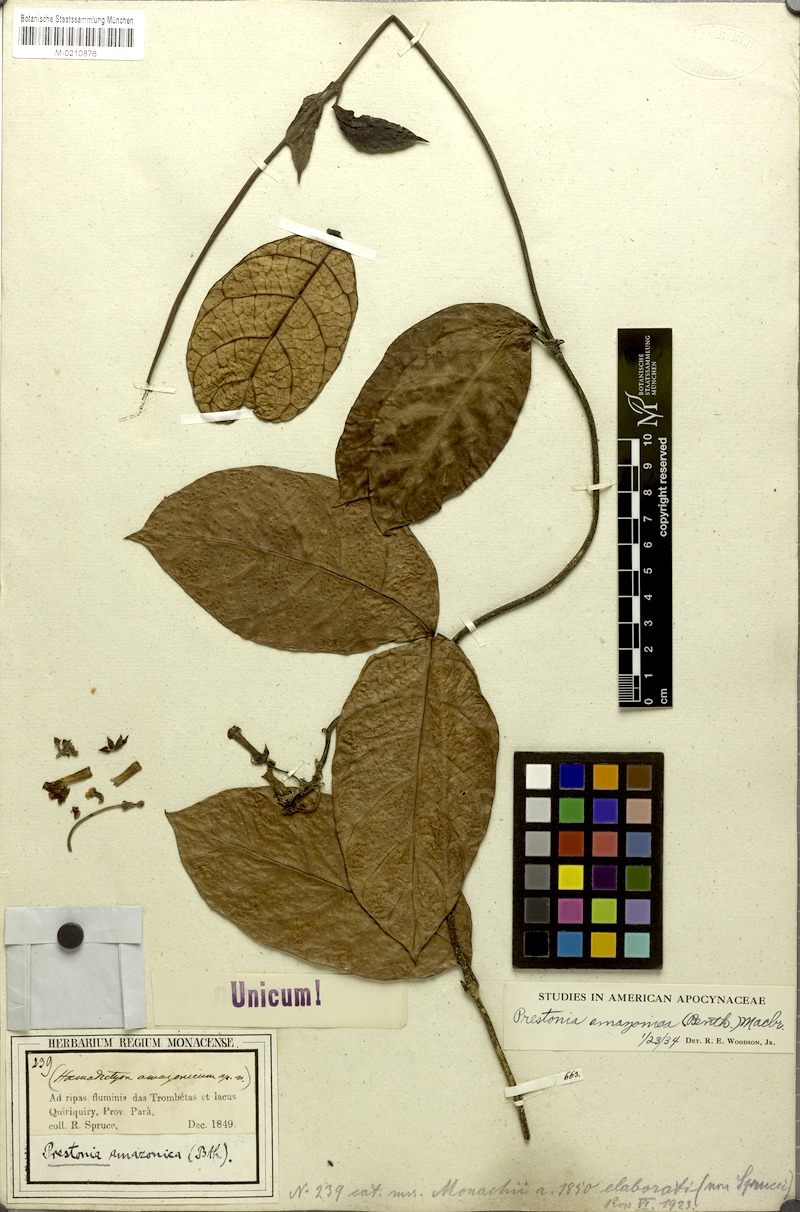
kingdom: Plantae
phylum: Tracheophyta
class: Magnoliopsida
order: Gentianales
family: Apocynaceae
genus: Prestonia
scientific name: Prestonia amazonica
